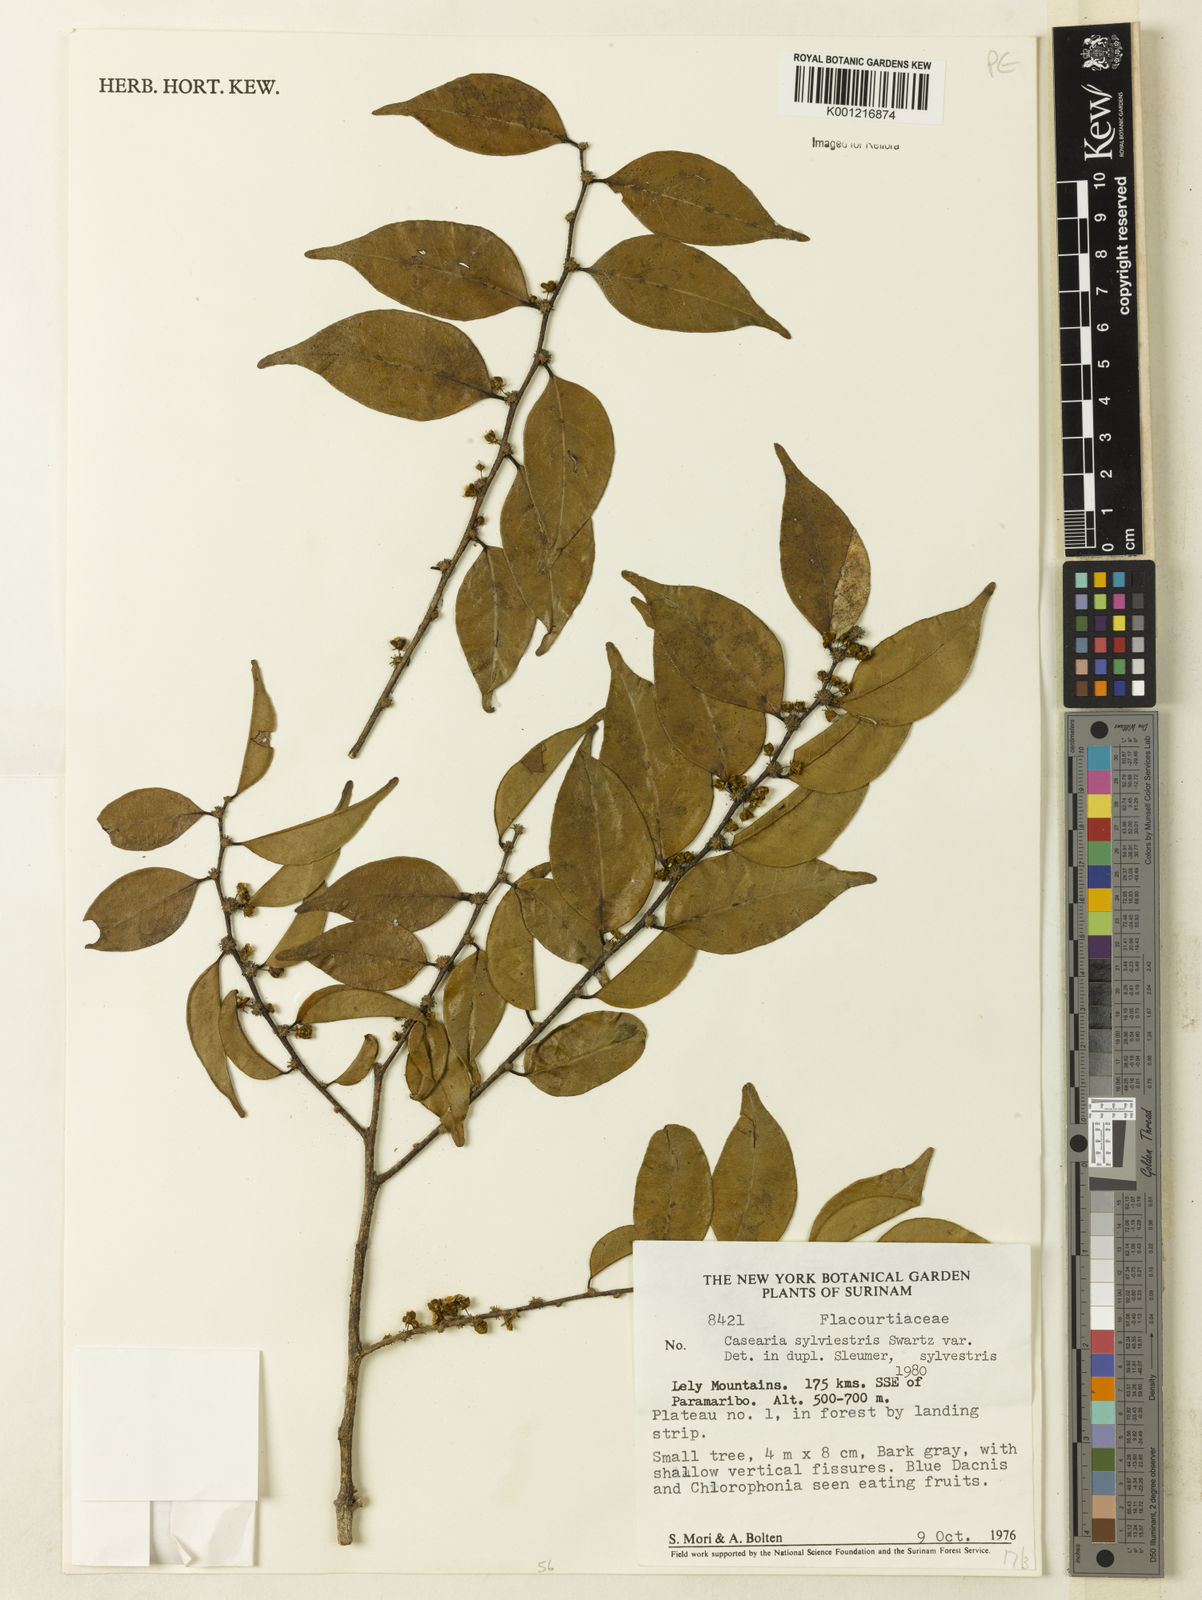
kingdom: Plantae
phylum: Tracheophyta
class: Magnoliopsida
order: Malpighiales
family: Salicaceae
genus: Casearia
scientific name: Casearia sylvestris
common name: Wild sage
